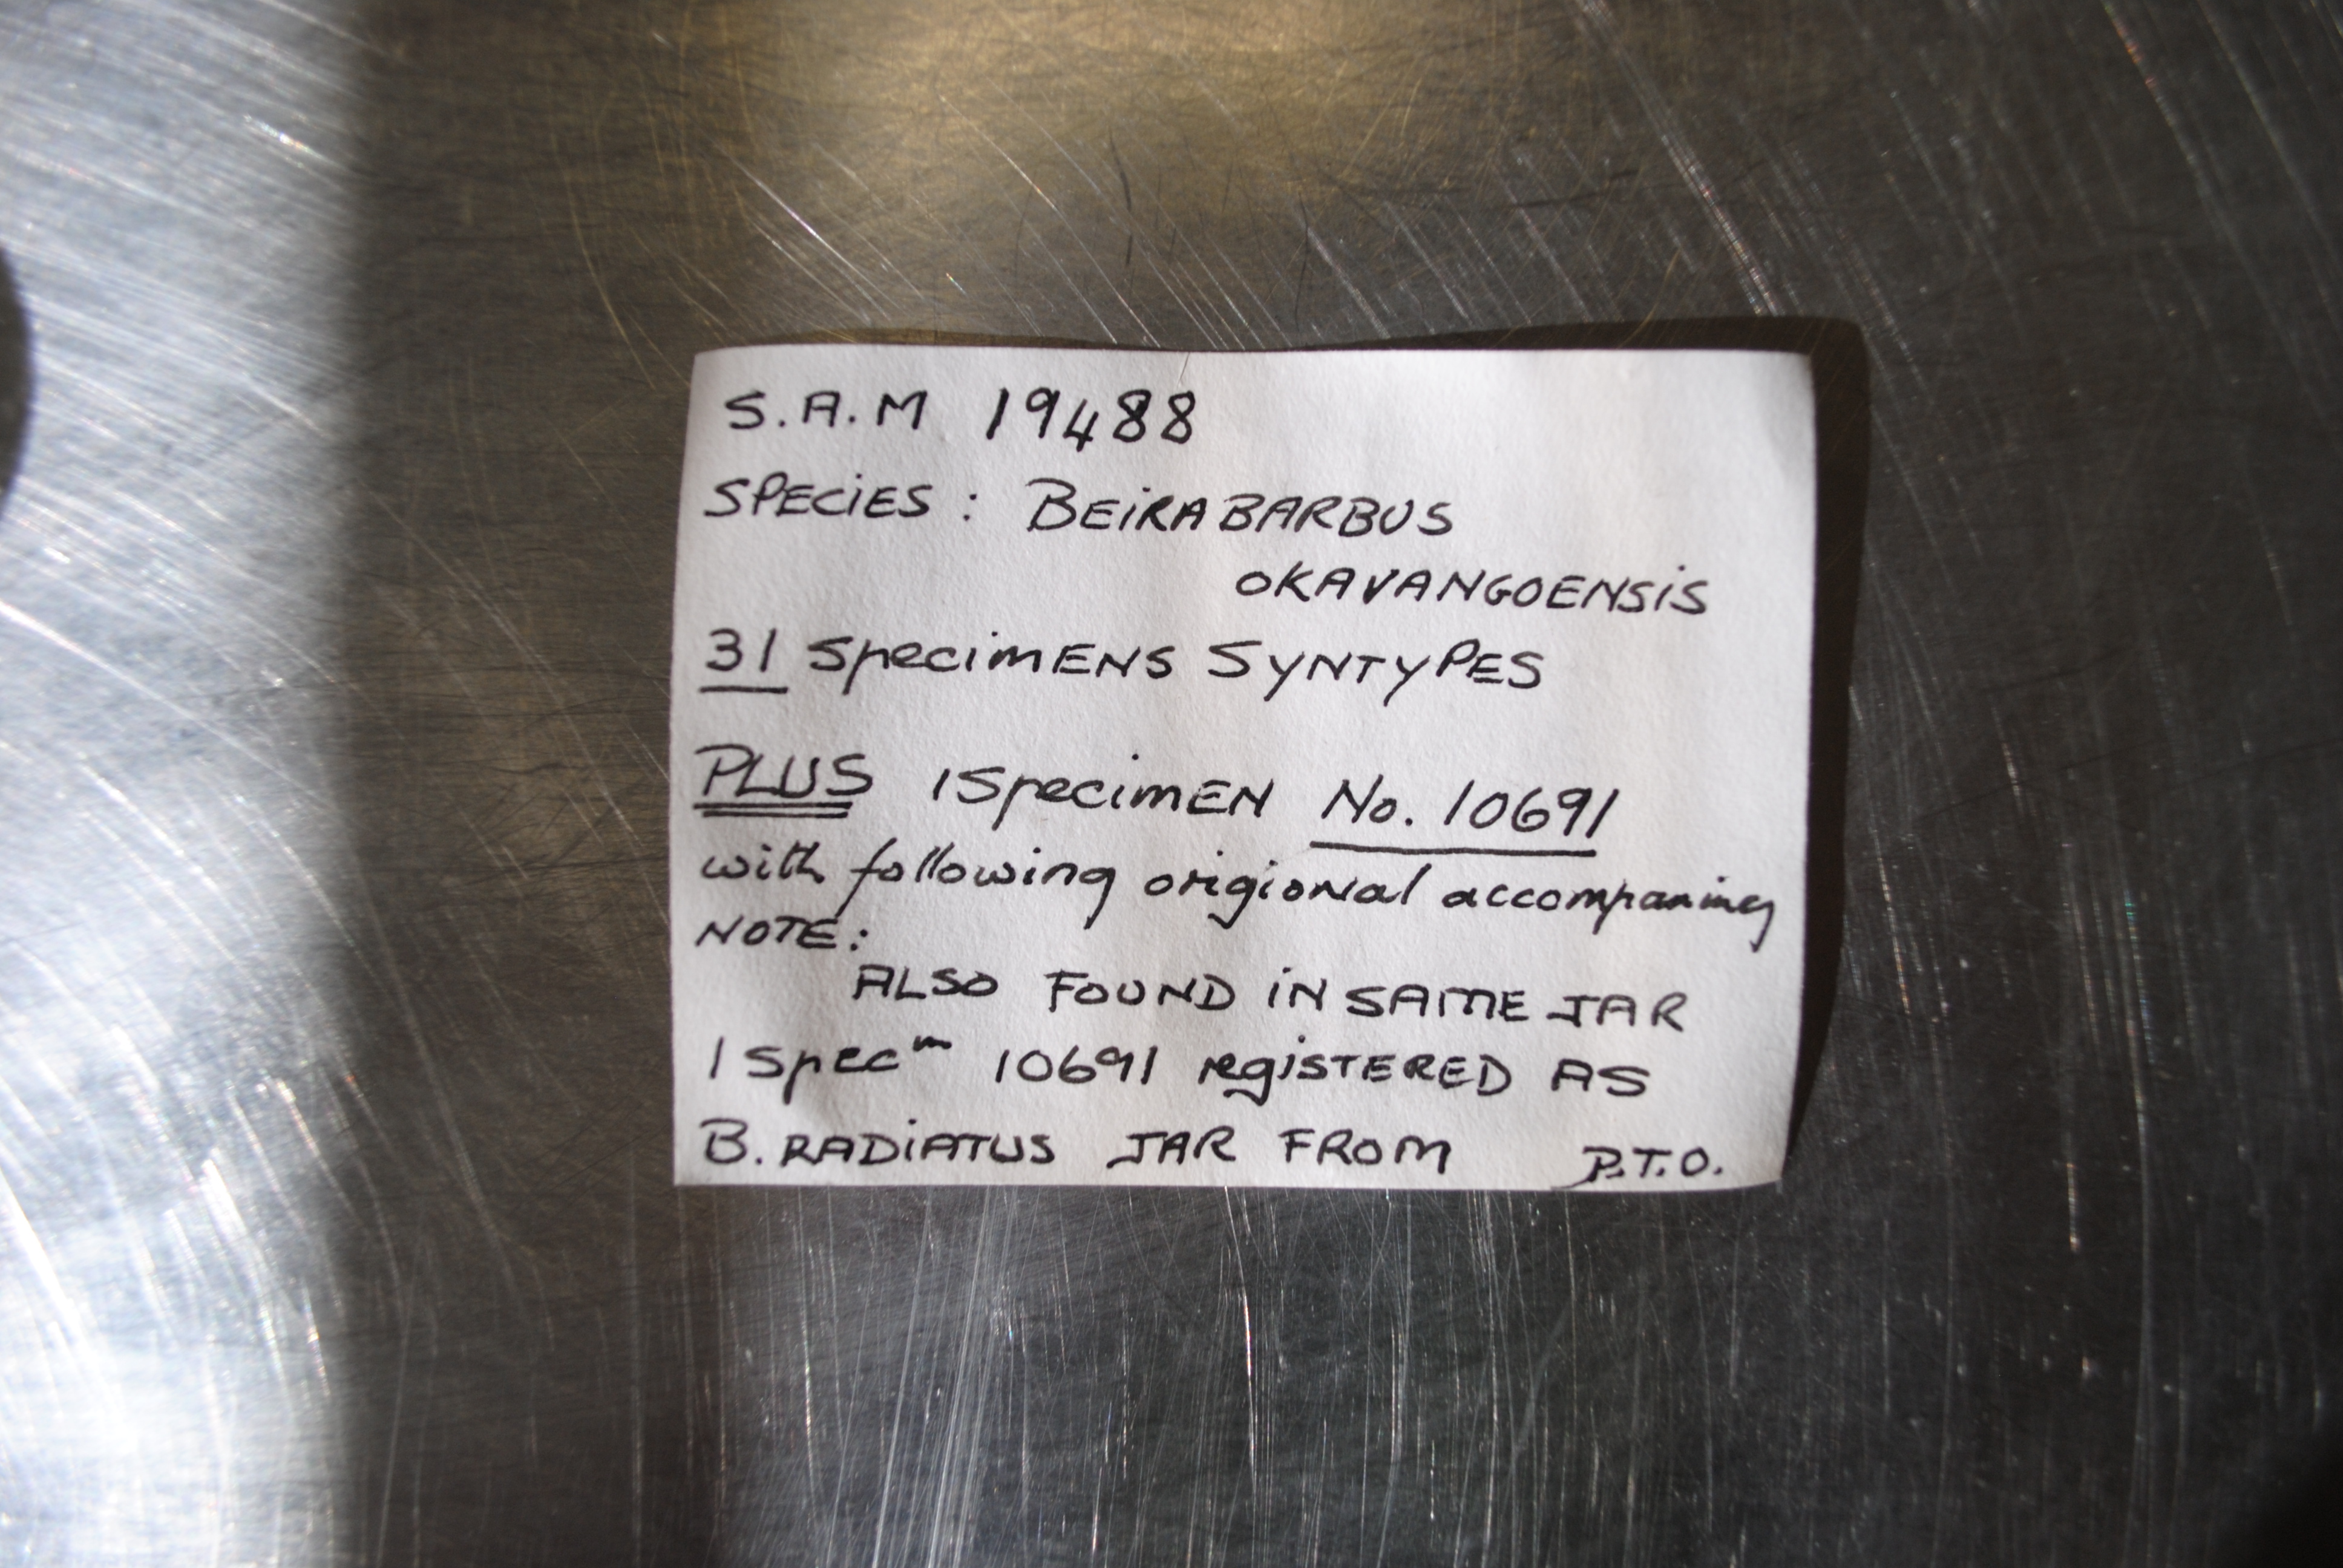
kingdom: Animalia
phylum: Chordata
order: Cypriniformes
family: Cyprinidae
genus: Enteromius
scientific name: Enteromius barnardi
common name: Blackback barb
